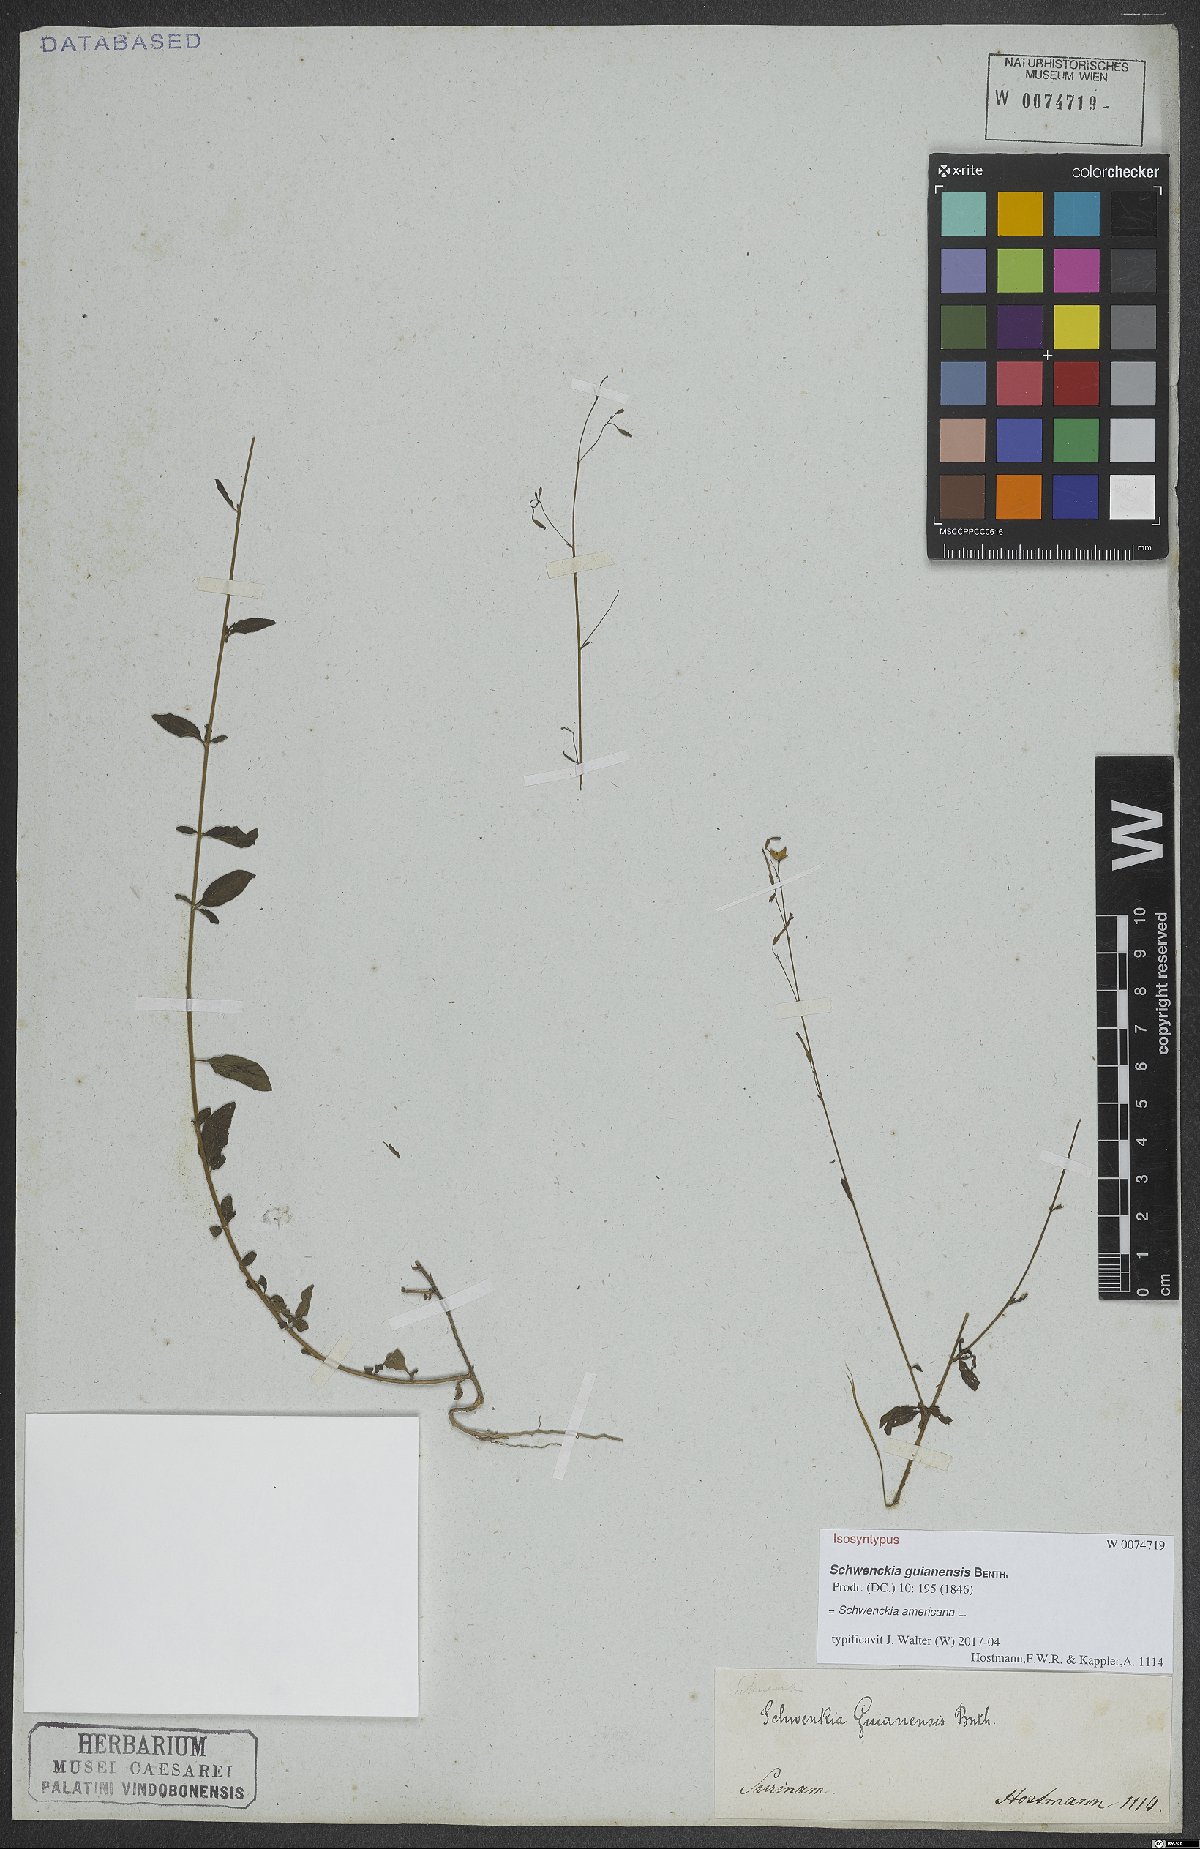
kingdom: Plantae
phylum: Tracheophyta
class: Magnoliopsida
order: Solanales
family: Solanaceae
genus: Schwenckia
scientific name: Schwenckia americana
